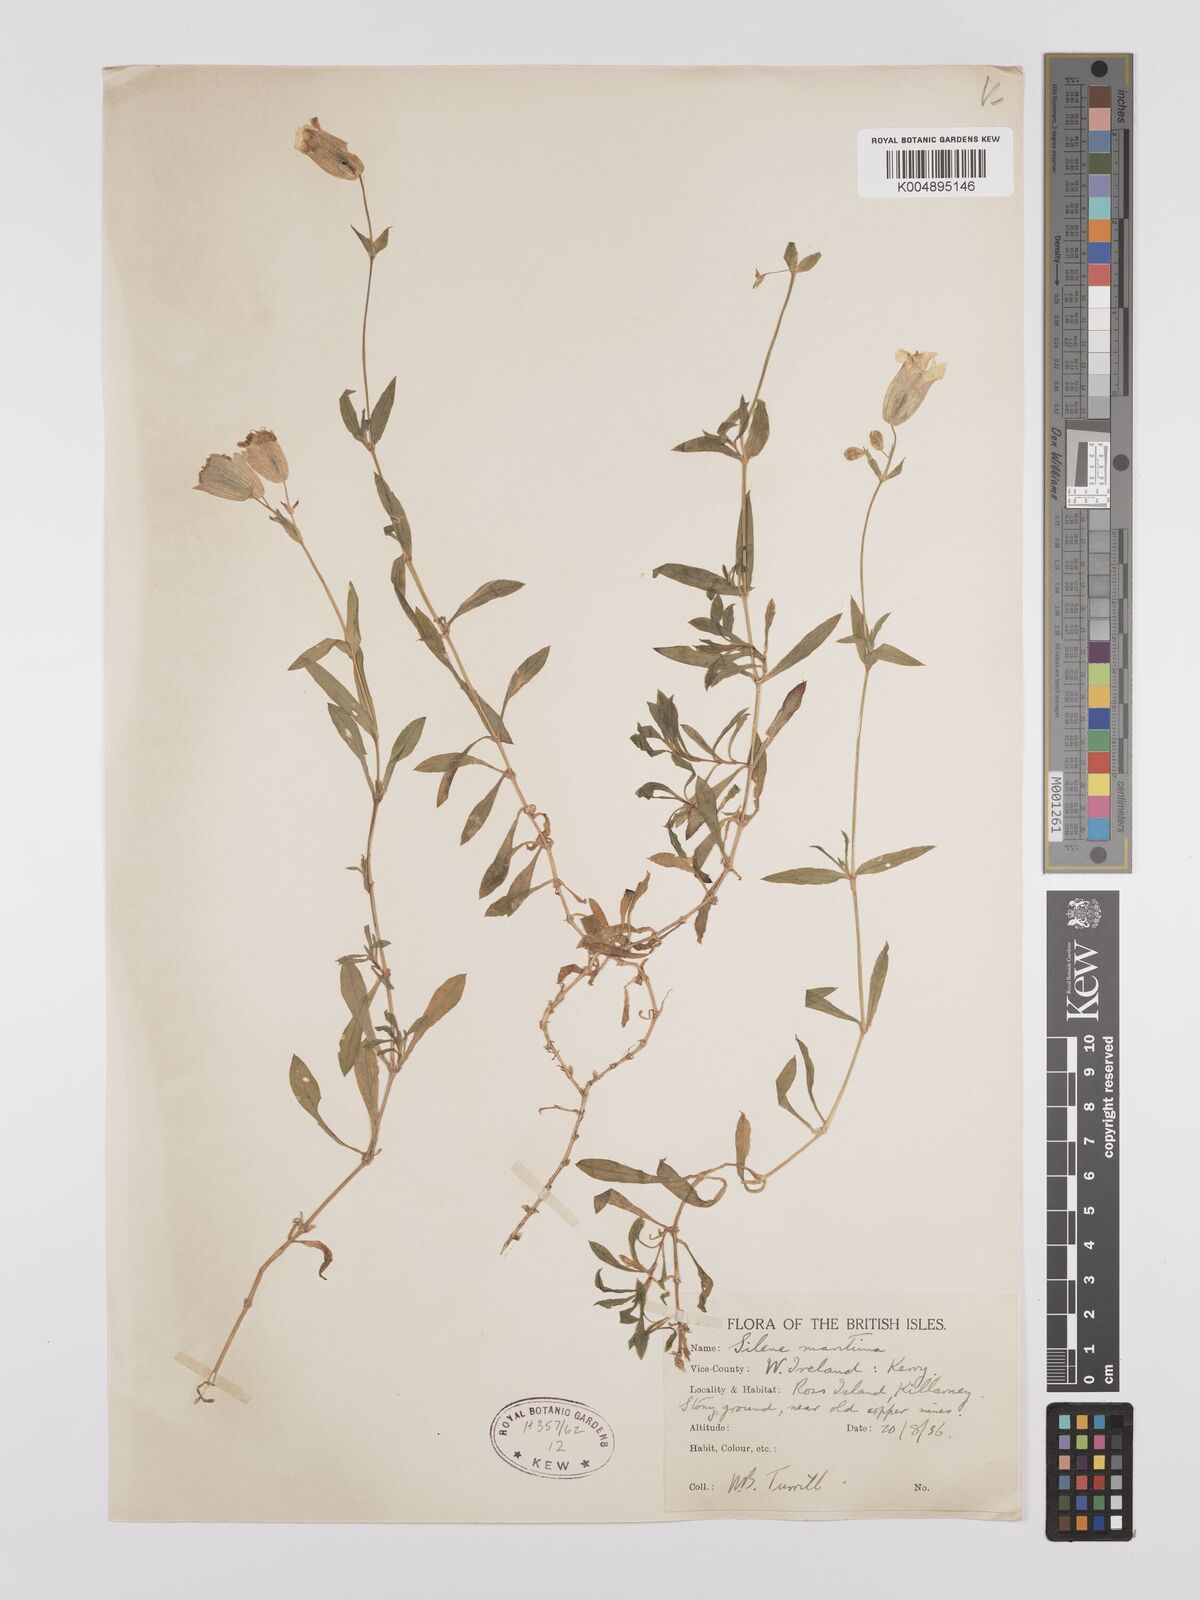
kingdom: Plantae
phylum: Tracheophyta
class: Magnoliopsida
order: Caryophyllales
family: Caryophyllaceae
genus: Silene
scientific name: Silene uniflora
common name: Sea campion
